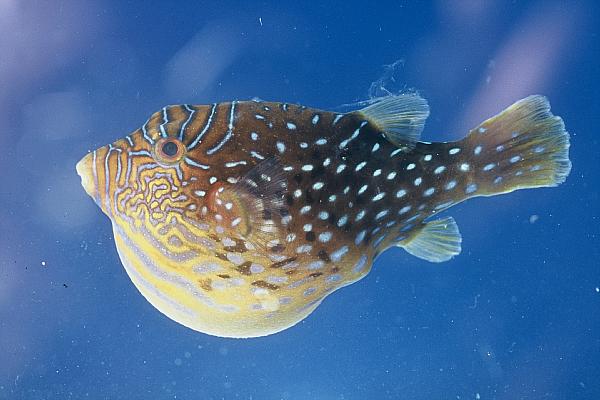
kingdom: Animalia
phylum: Chordata
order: Tetraodontiformes
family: Tetraodontidae
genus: Canthigaster
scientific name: Canthigaster amboinensis
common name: Ambon pufferfish
